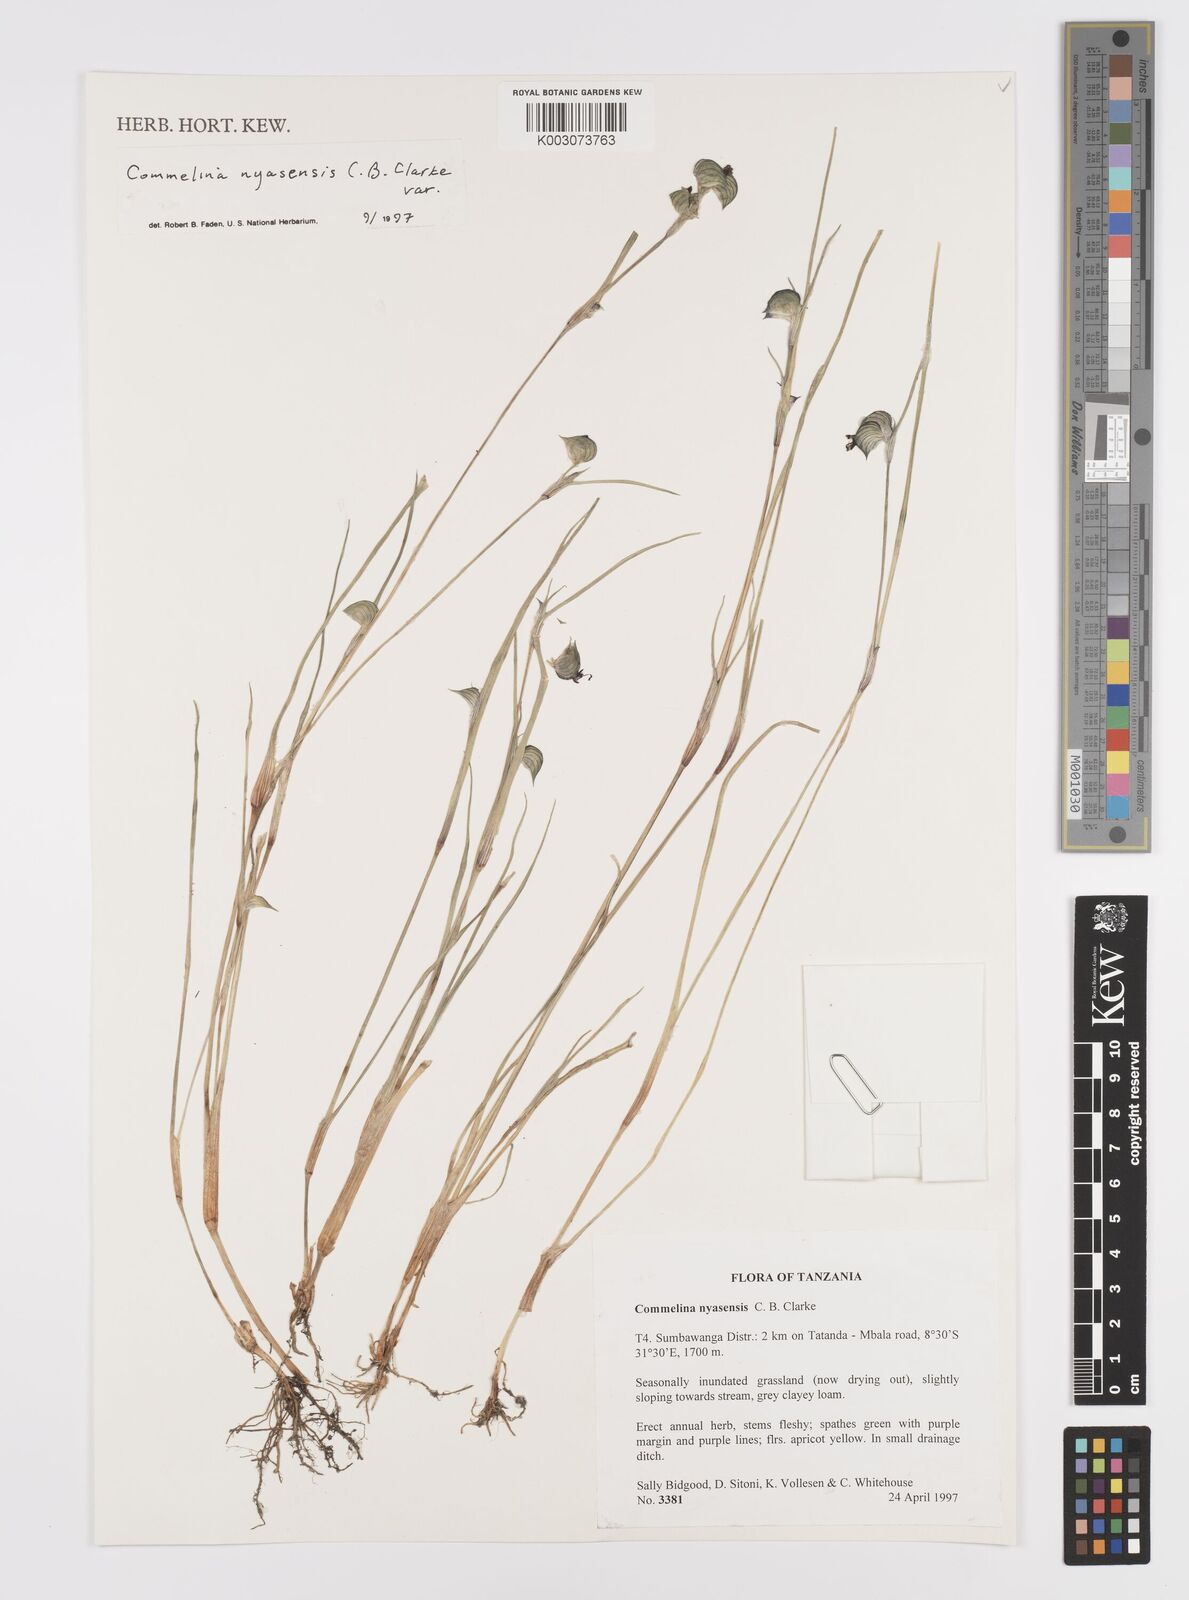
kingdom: Plantae
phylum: Tracheophyta
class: Liliopsida
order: Commelinales
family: Commelinaceae
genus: Commelina
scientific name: Commelina nyasensis
